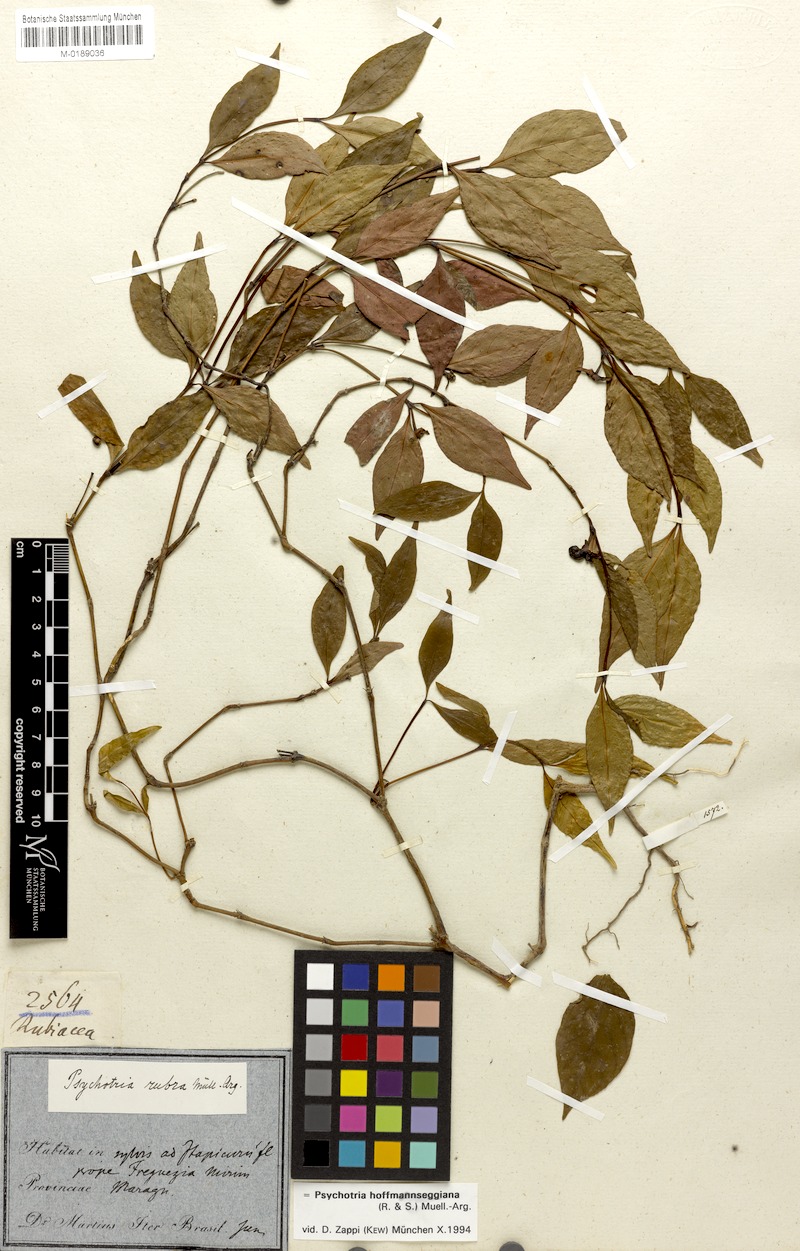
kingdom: Plantae
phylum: Tracheophyta
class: Magnoliopsida
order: Gentianales
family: Rubiaceae
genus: Palicourea
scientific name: Palicourea hoffmannseggiana
